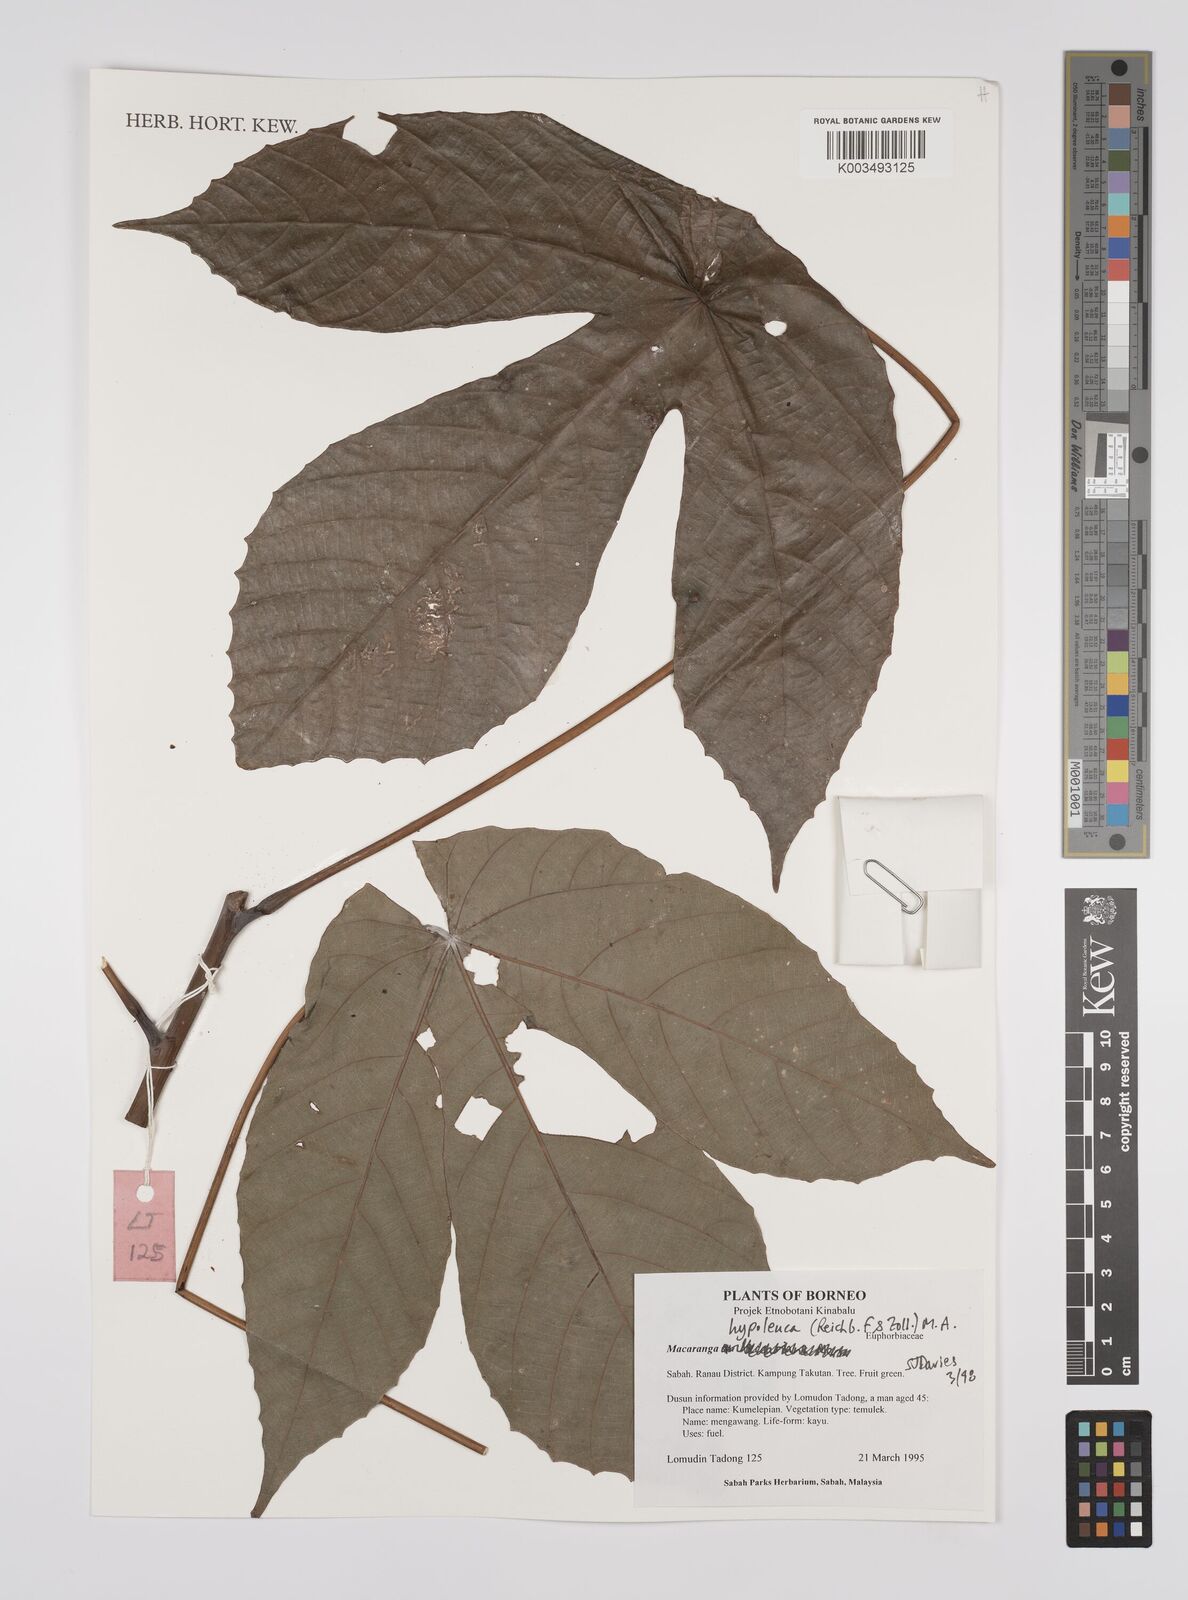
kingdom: Plantae
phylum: Tracheophyta
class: Magnoliopsida
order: Malpighiales
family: Euphorbiaceae
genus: Macaranga
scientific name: Macaranga hypoleuca
